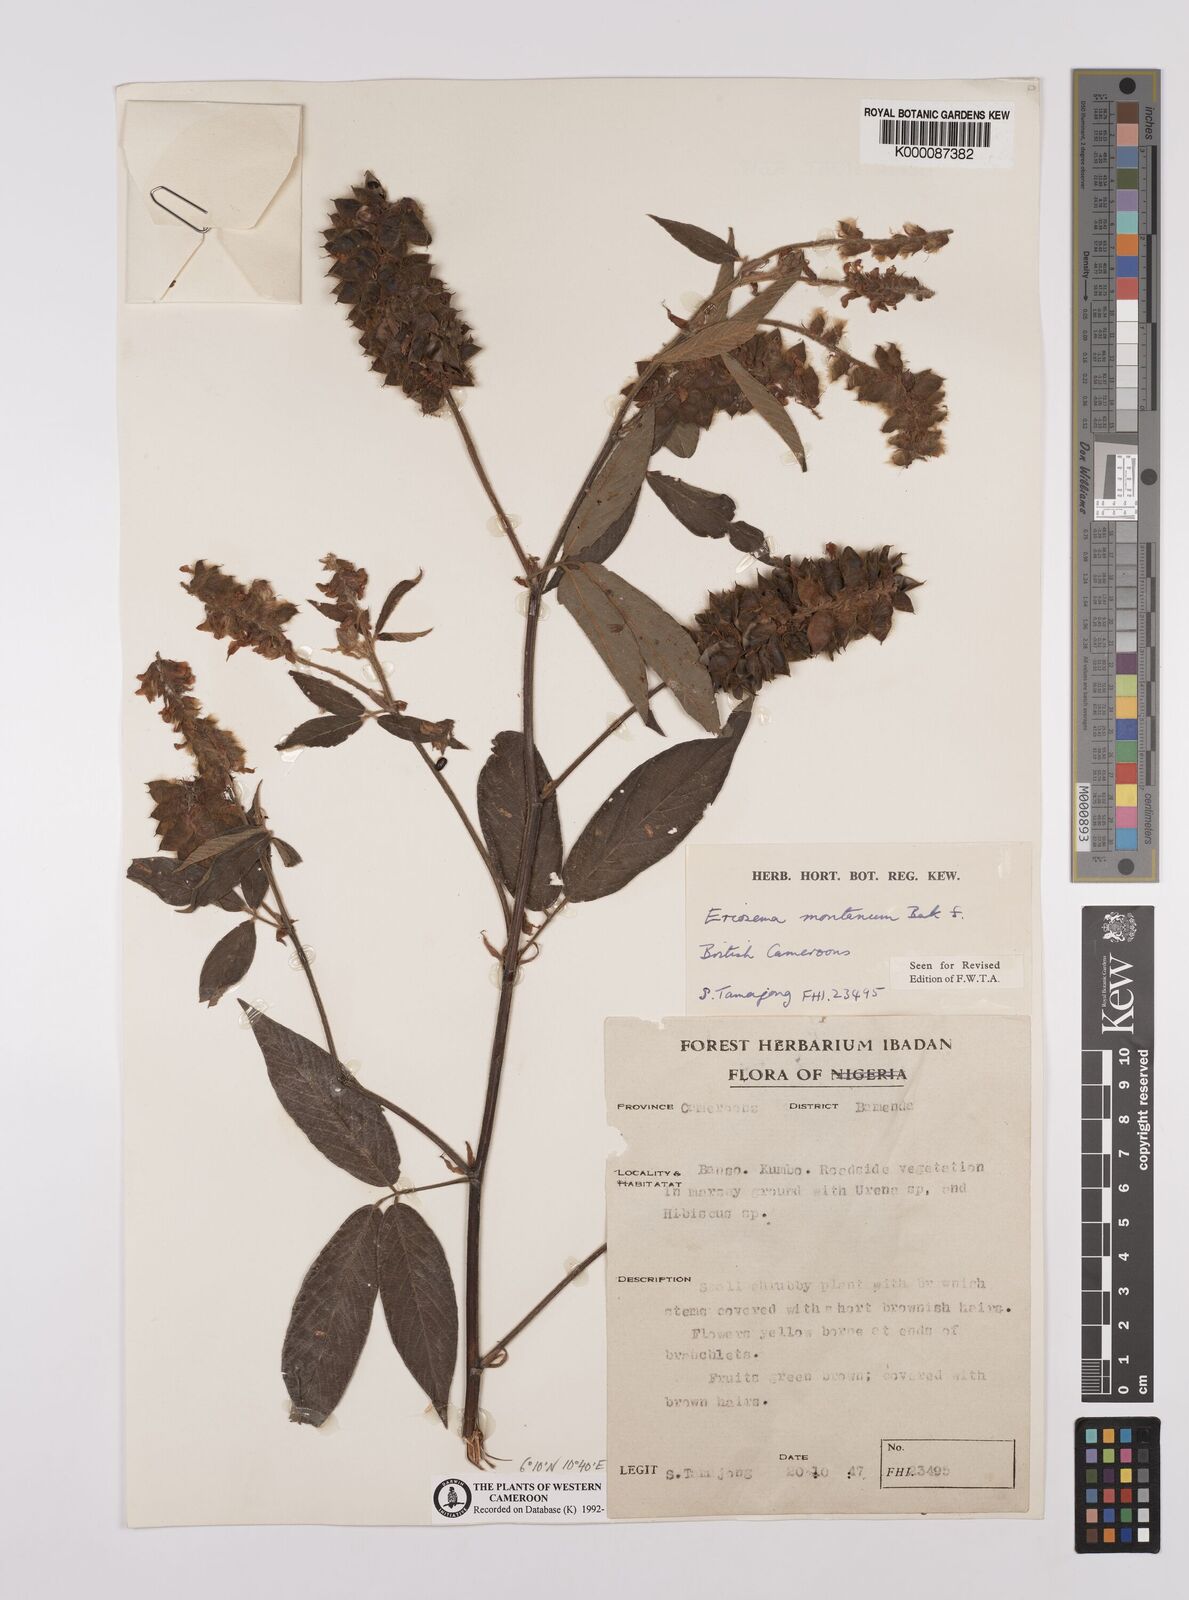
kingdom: Plantae
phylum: Tracheophyta
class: Magnoliopsida
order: Fabales
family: Fabaceae
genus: Eriosema
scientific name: Eriosema montanum
